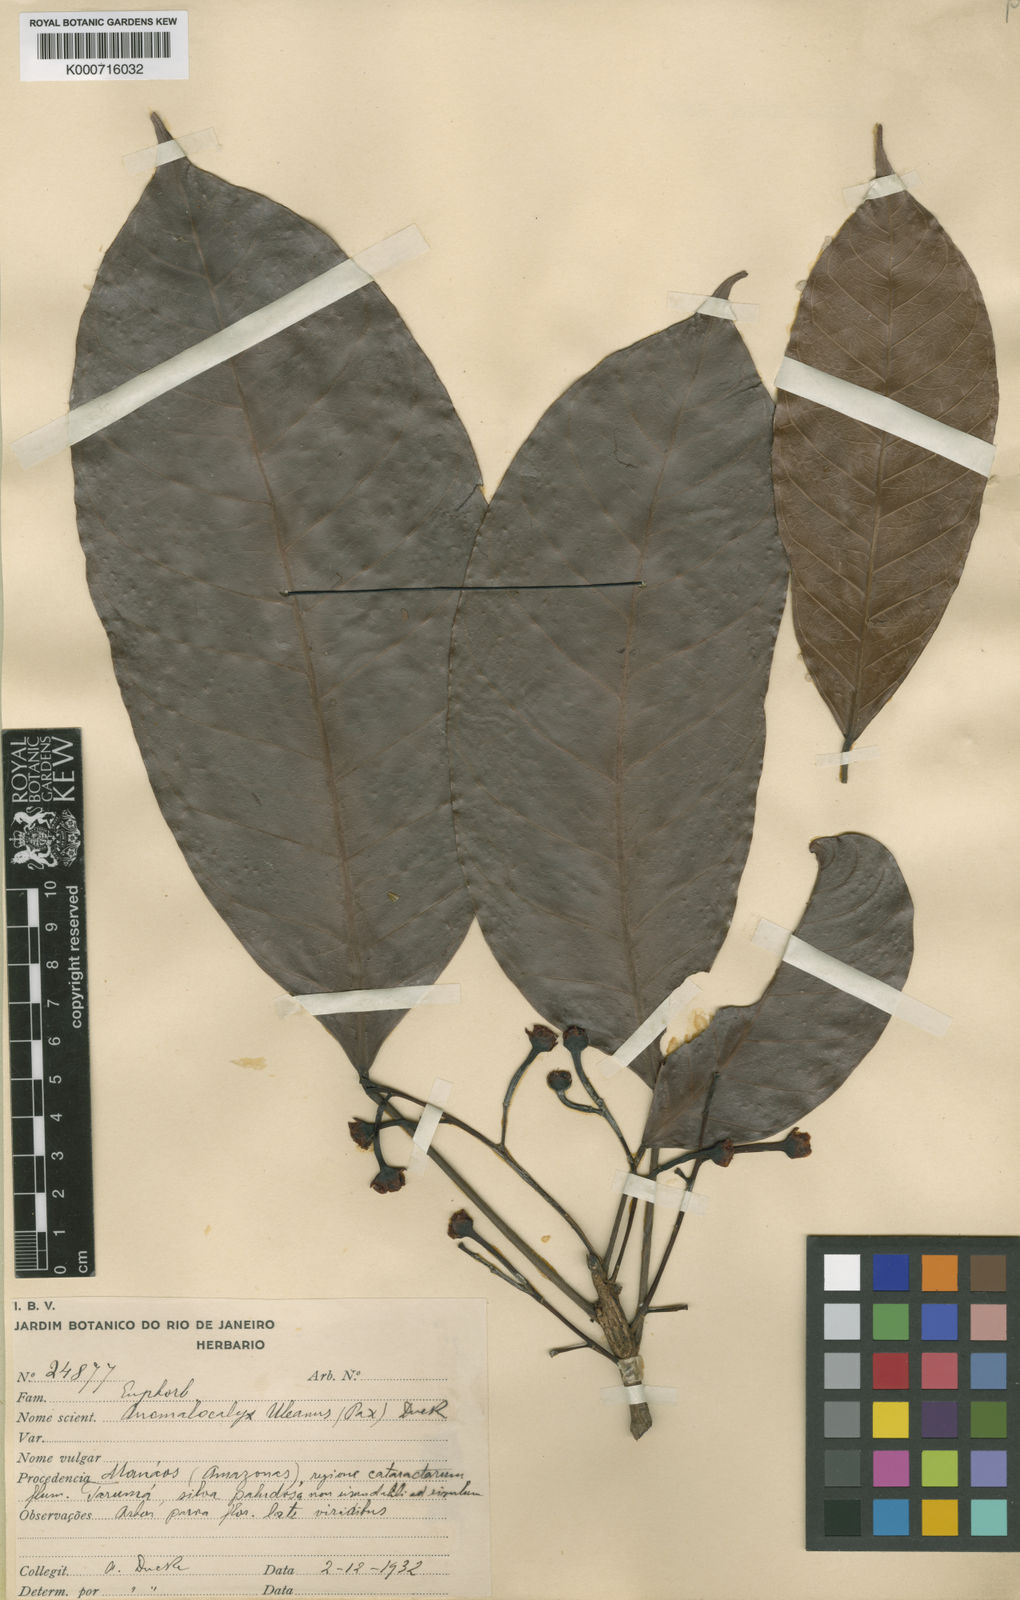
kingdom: Animalia
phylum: Brachiopoda
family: Tomteluvidae
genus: Anomalocalyx
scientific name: Anomalocalyx
